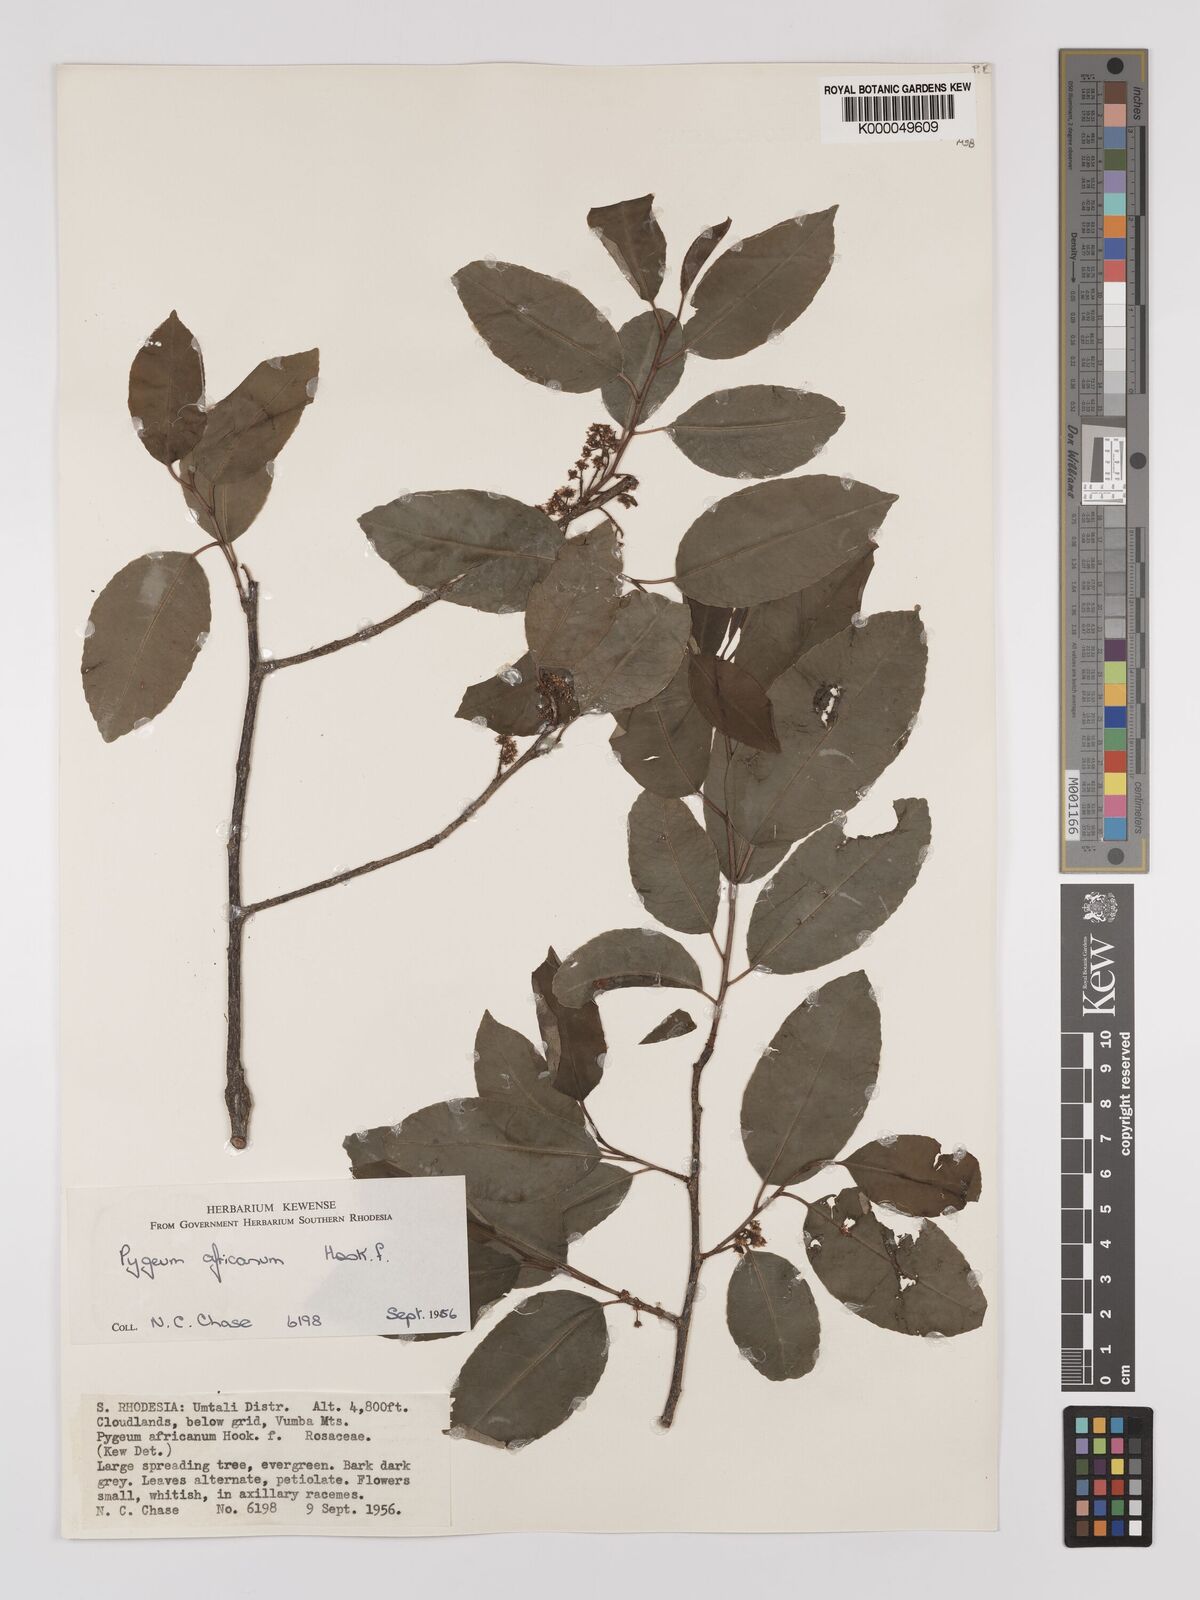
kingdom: Plantae
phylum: Tracheophyta
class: Magnoliopsida
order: Rosales
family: Rosaceae
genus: Prunus
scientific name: Prunus africana
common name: African cherry
